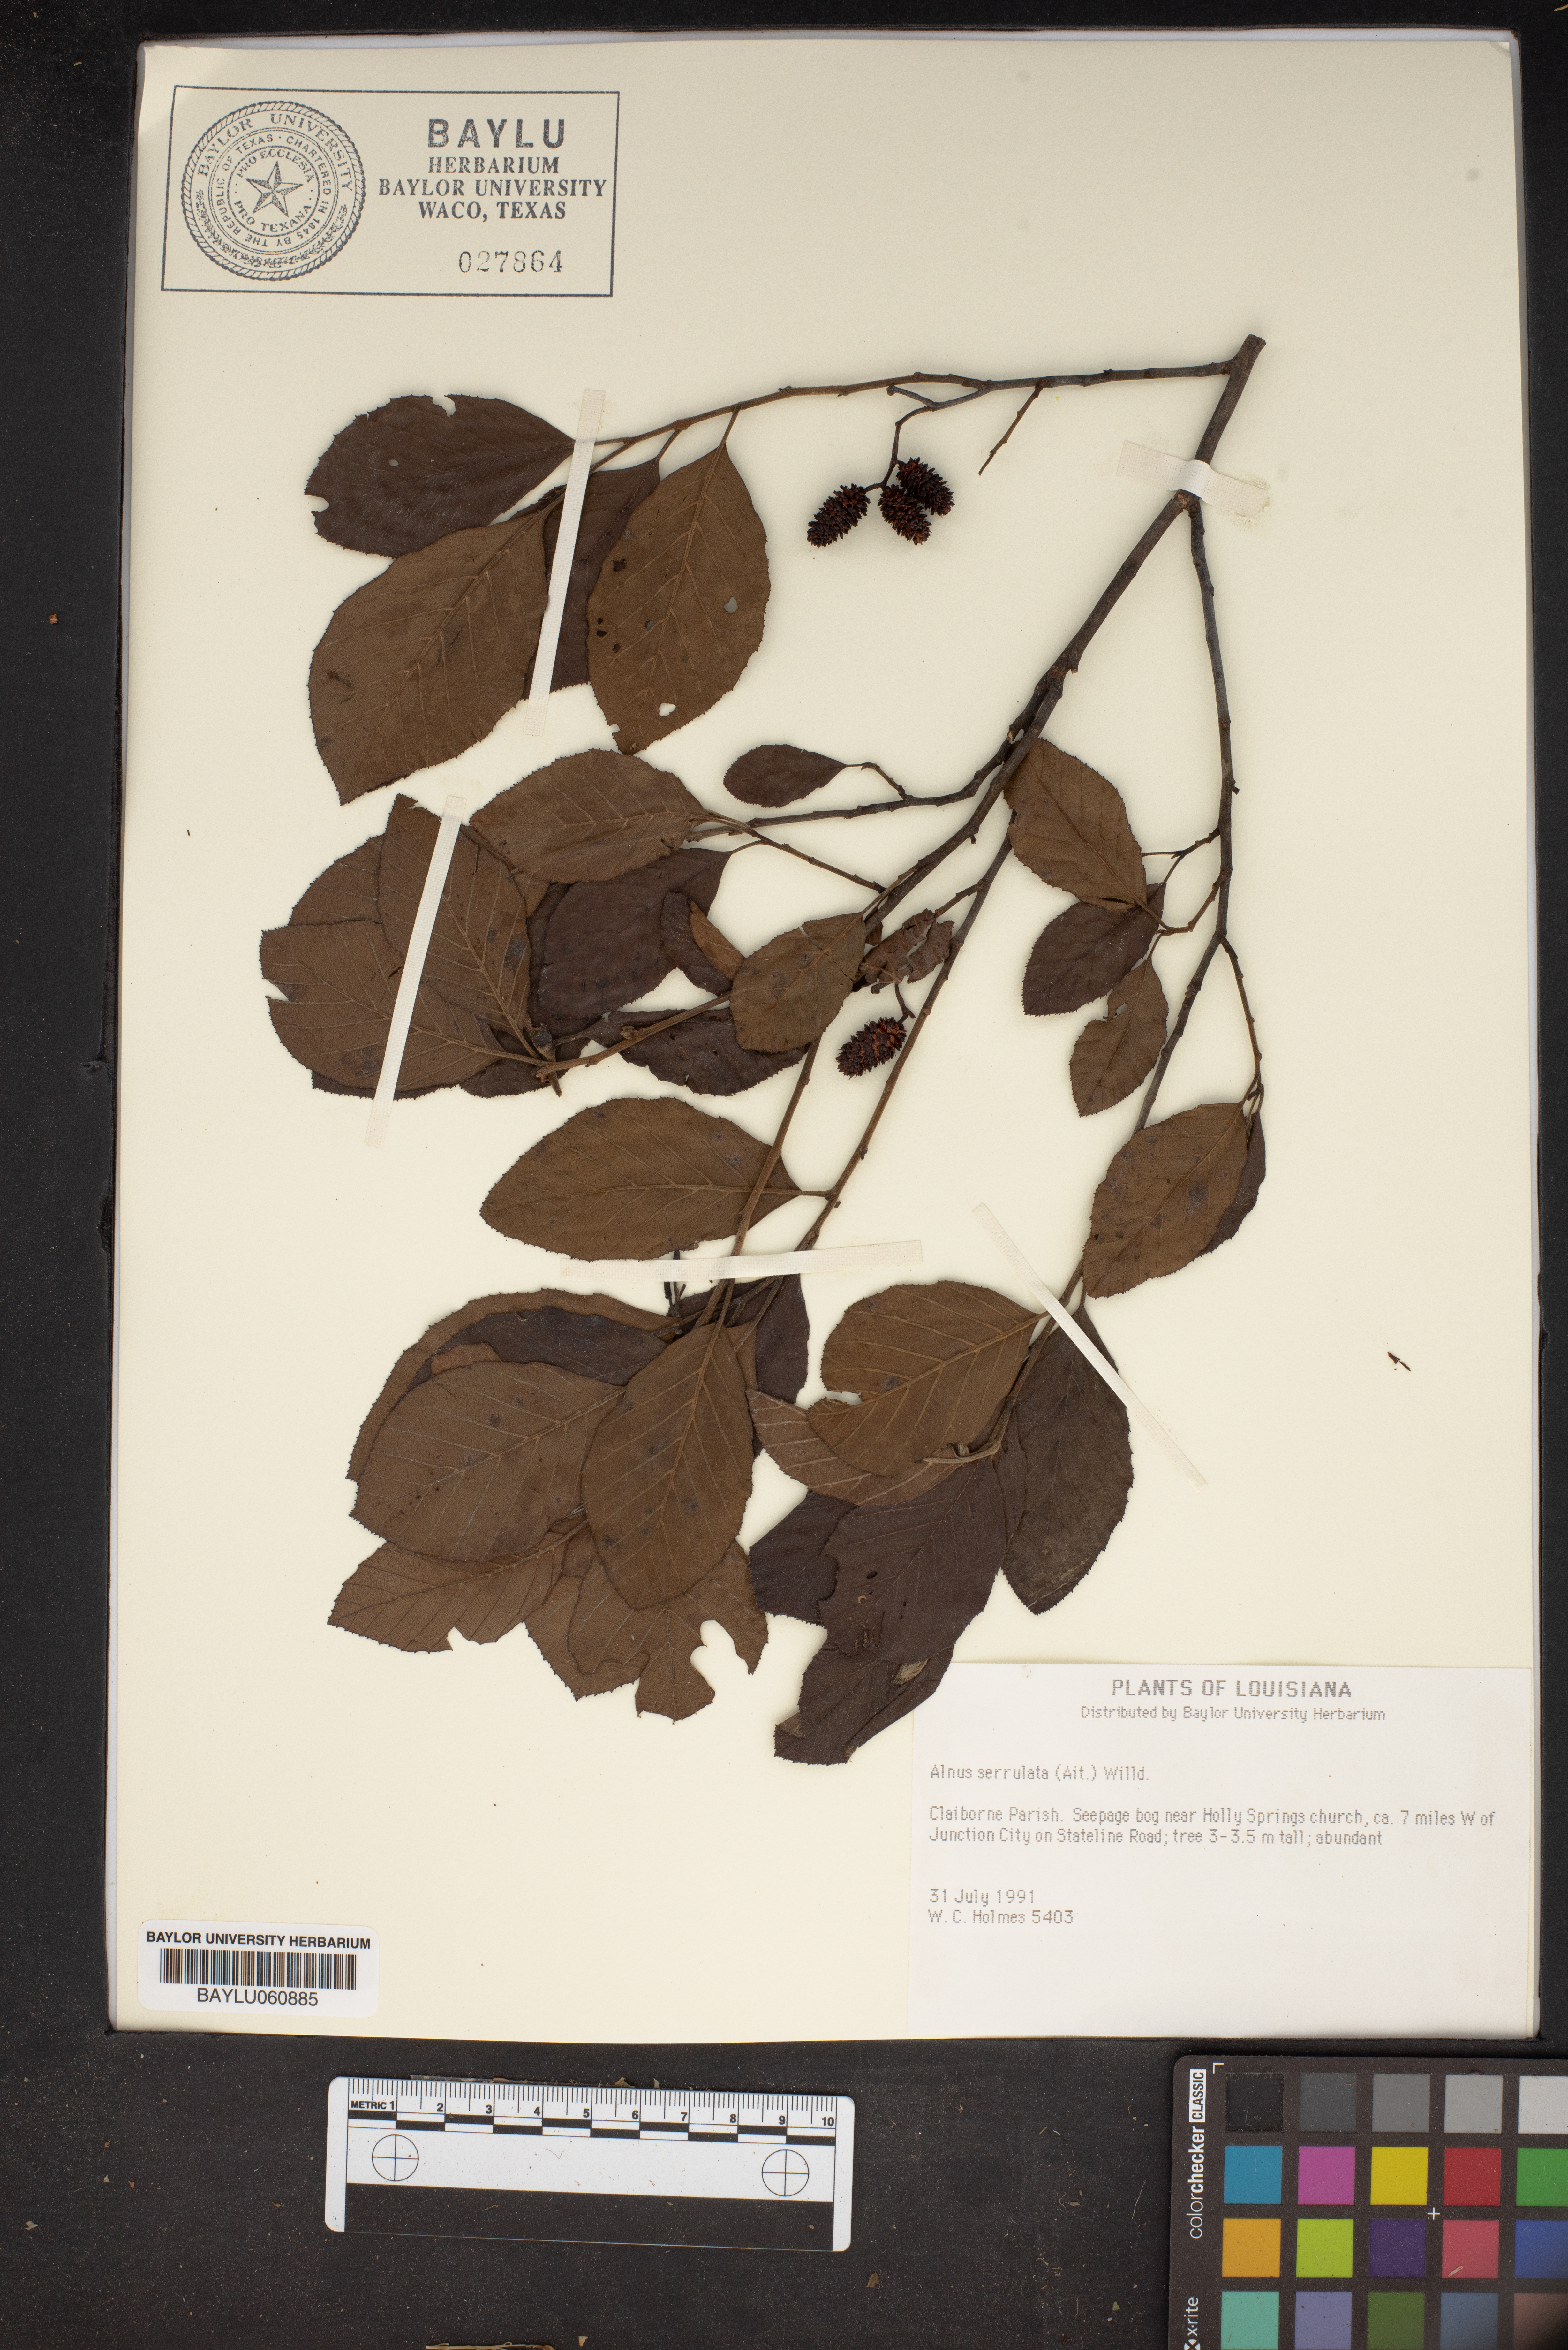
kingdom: Plantae
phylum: Tracheophyta
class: Magnoliopsida
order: Fagales
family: Betulaceae
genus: Alnus
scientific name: Alnus serrulata
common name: Hazel alder
